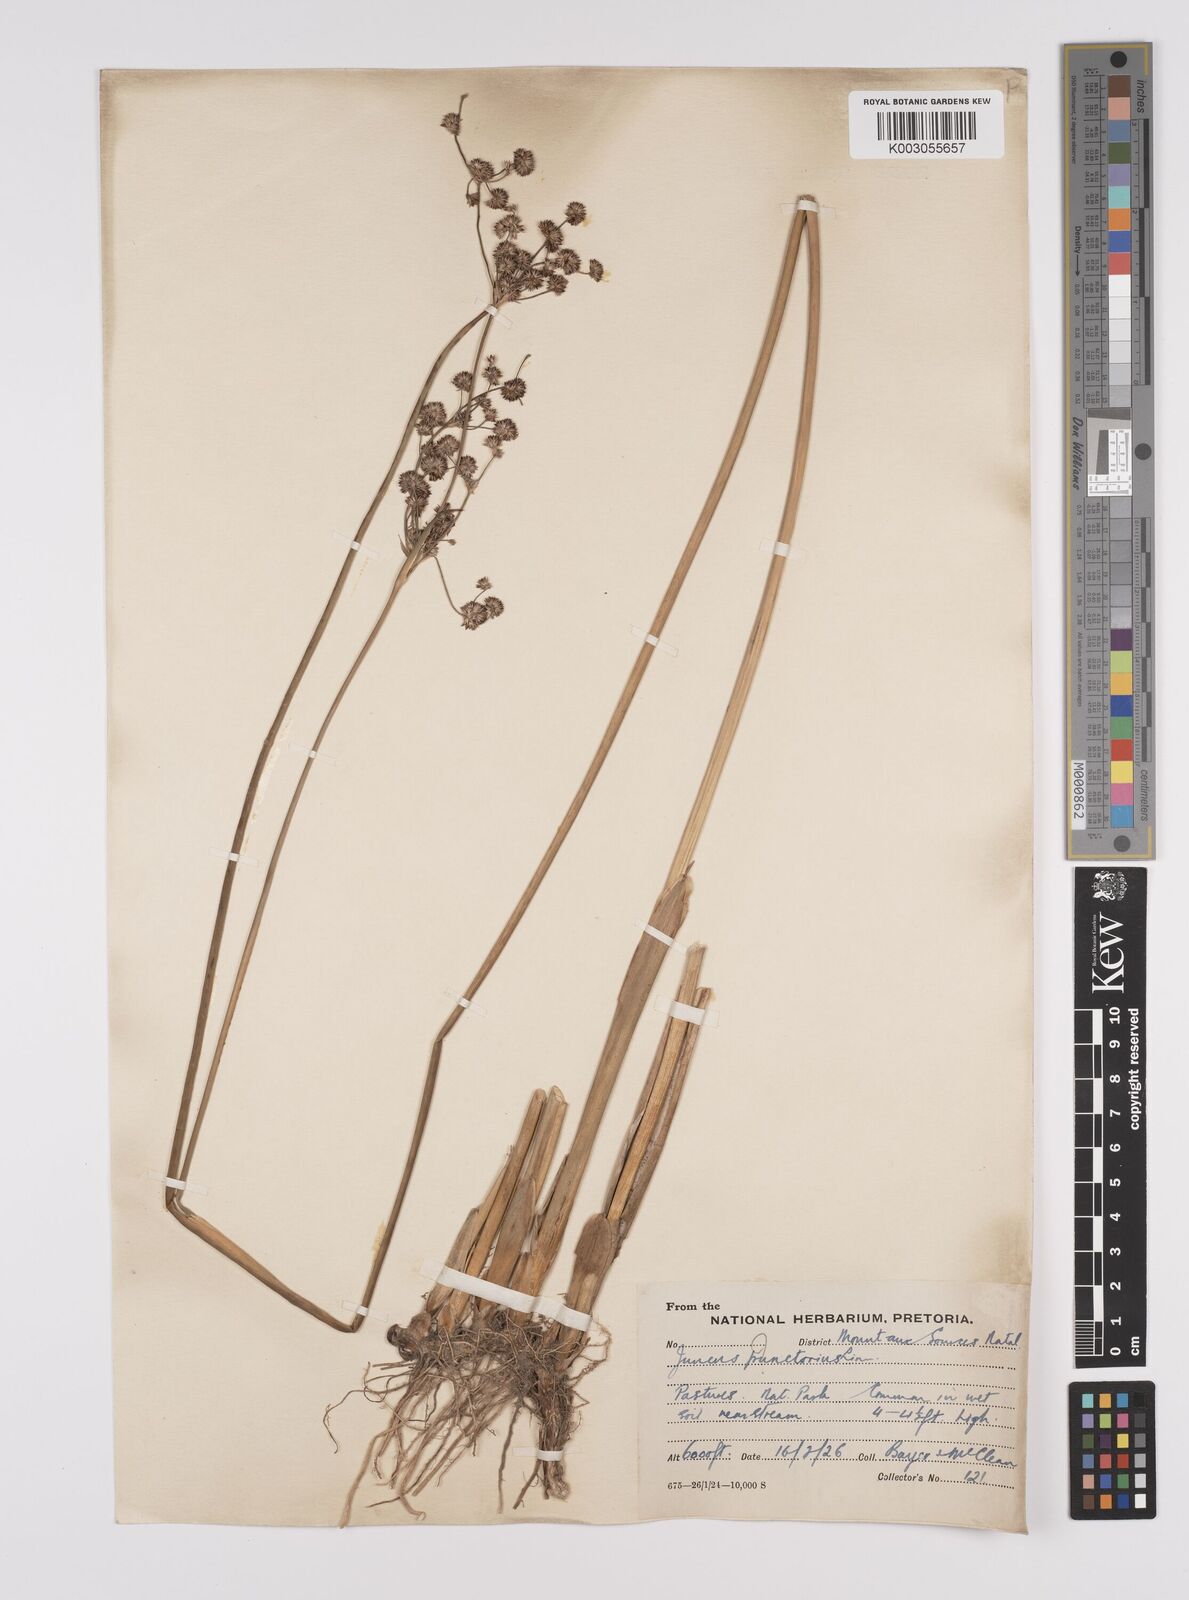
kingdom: Plantae
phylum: Tracheophyta
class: Liliopsida
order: Poales
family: Juncaceae
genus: Juncus
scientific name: Juncus punctorius
